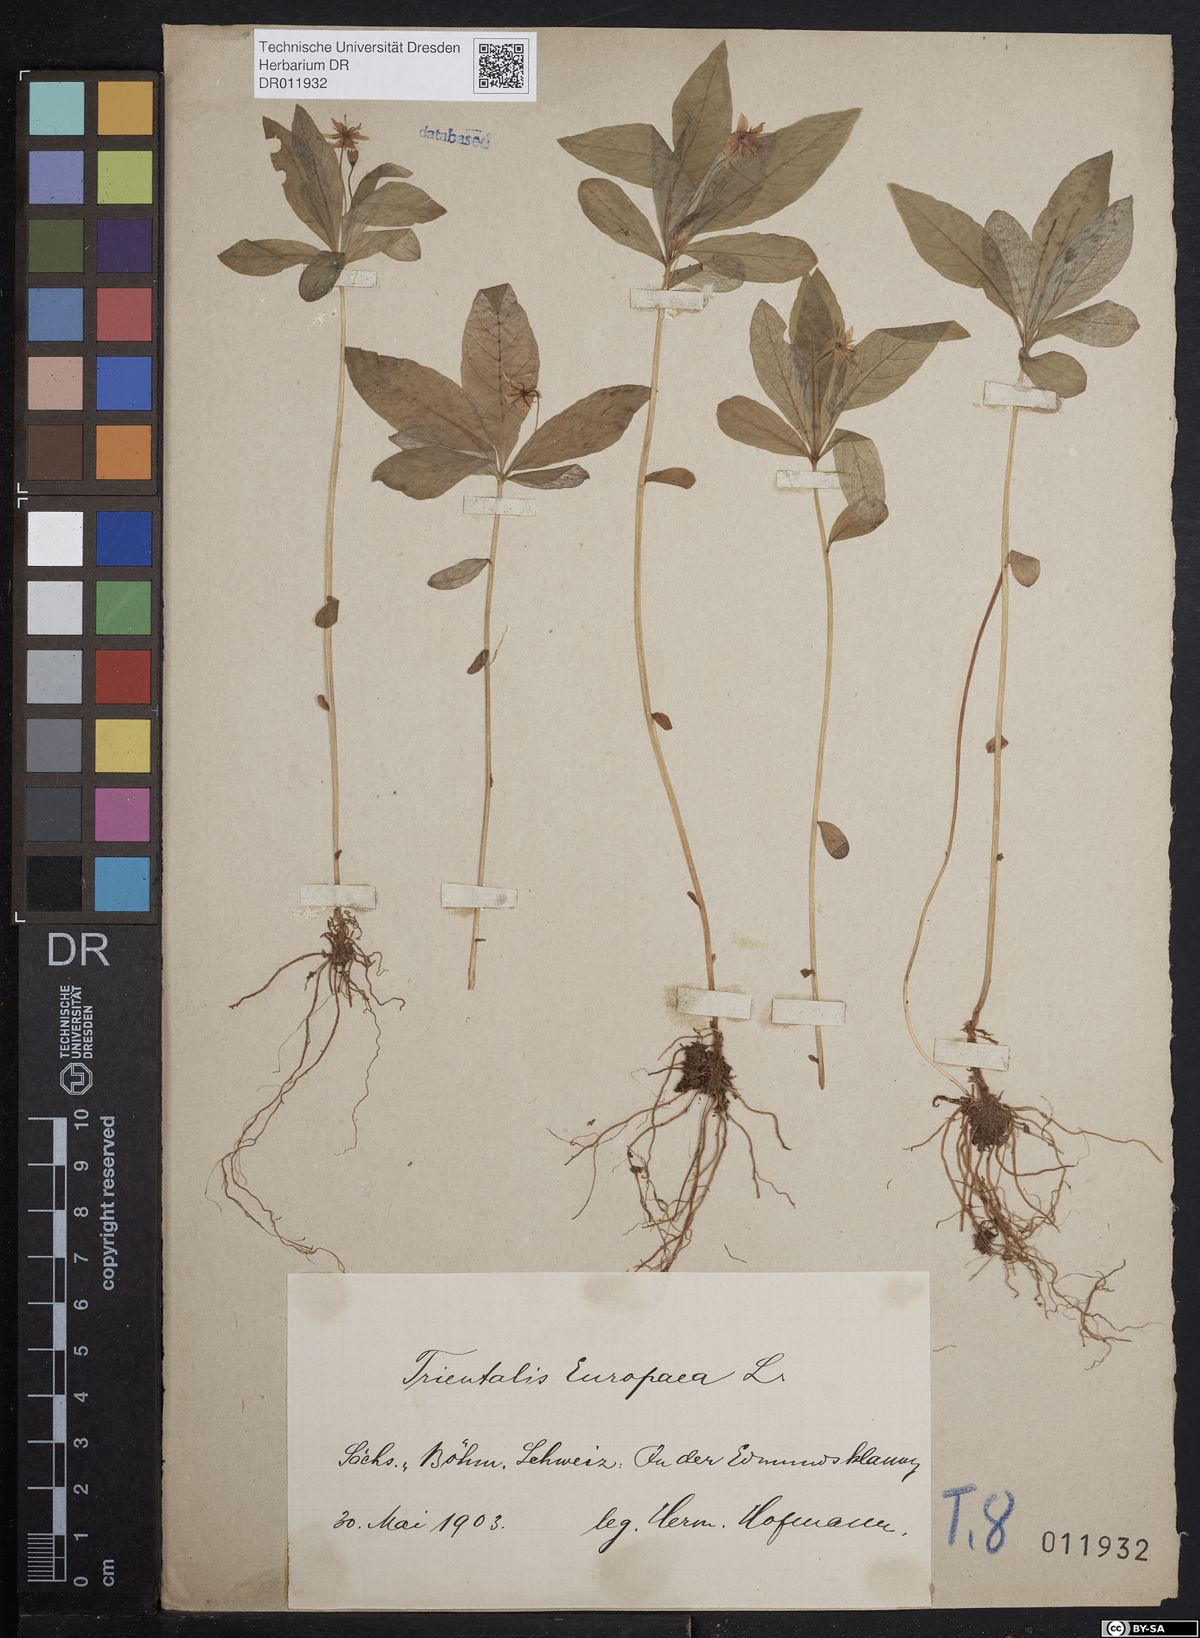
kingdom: Plantae
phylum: Tracheophyta
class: Magnoliopsida
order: Ericales
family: Primulaceae
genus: Lysimachia
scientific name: Lysimachia europaea
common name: Arctic starflower
